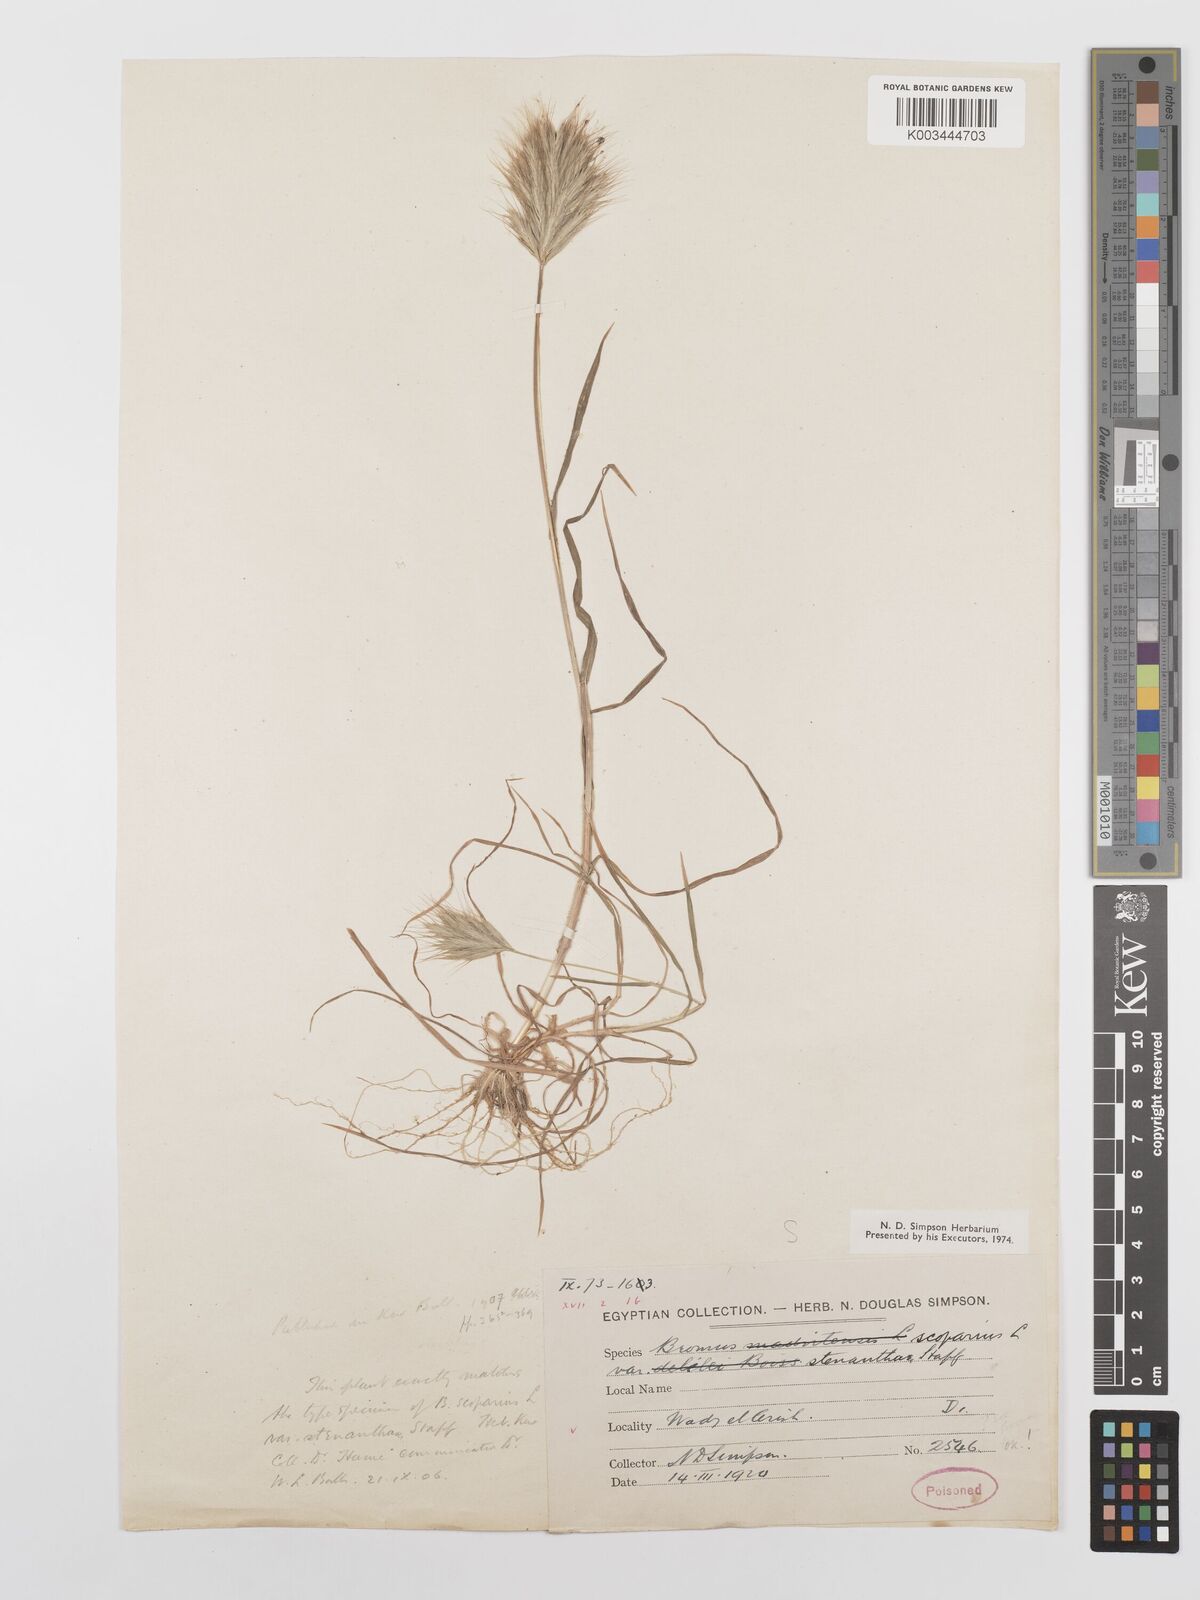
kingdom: Plantae
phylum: Tracheophyta
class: Liliopsida
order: Poales
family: Poaceae
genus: Bromus
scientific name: Bromus scoparius
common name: Broom brome
